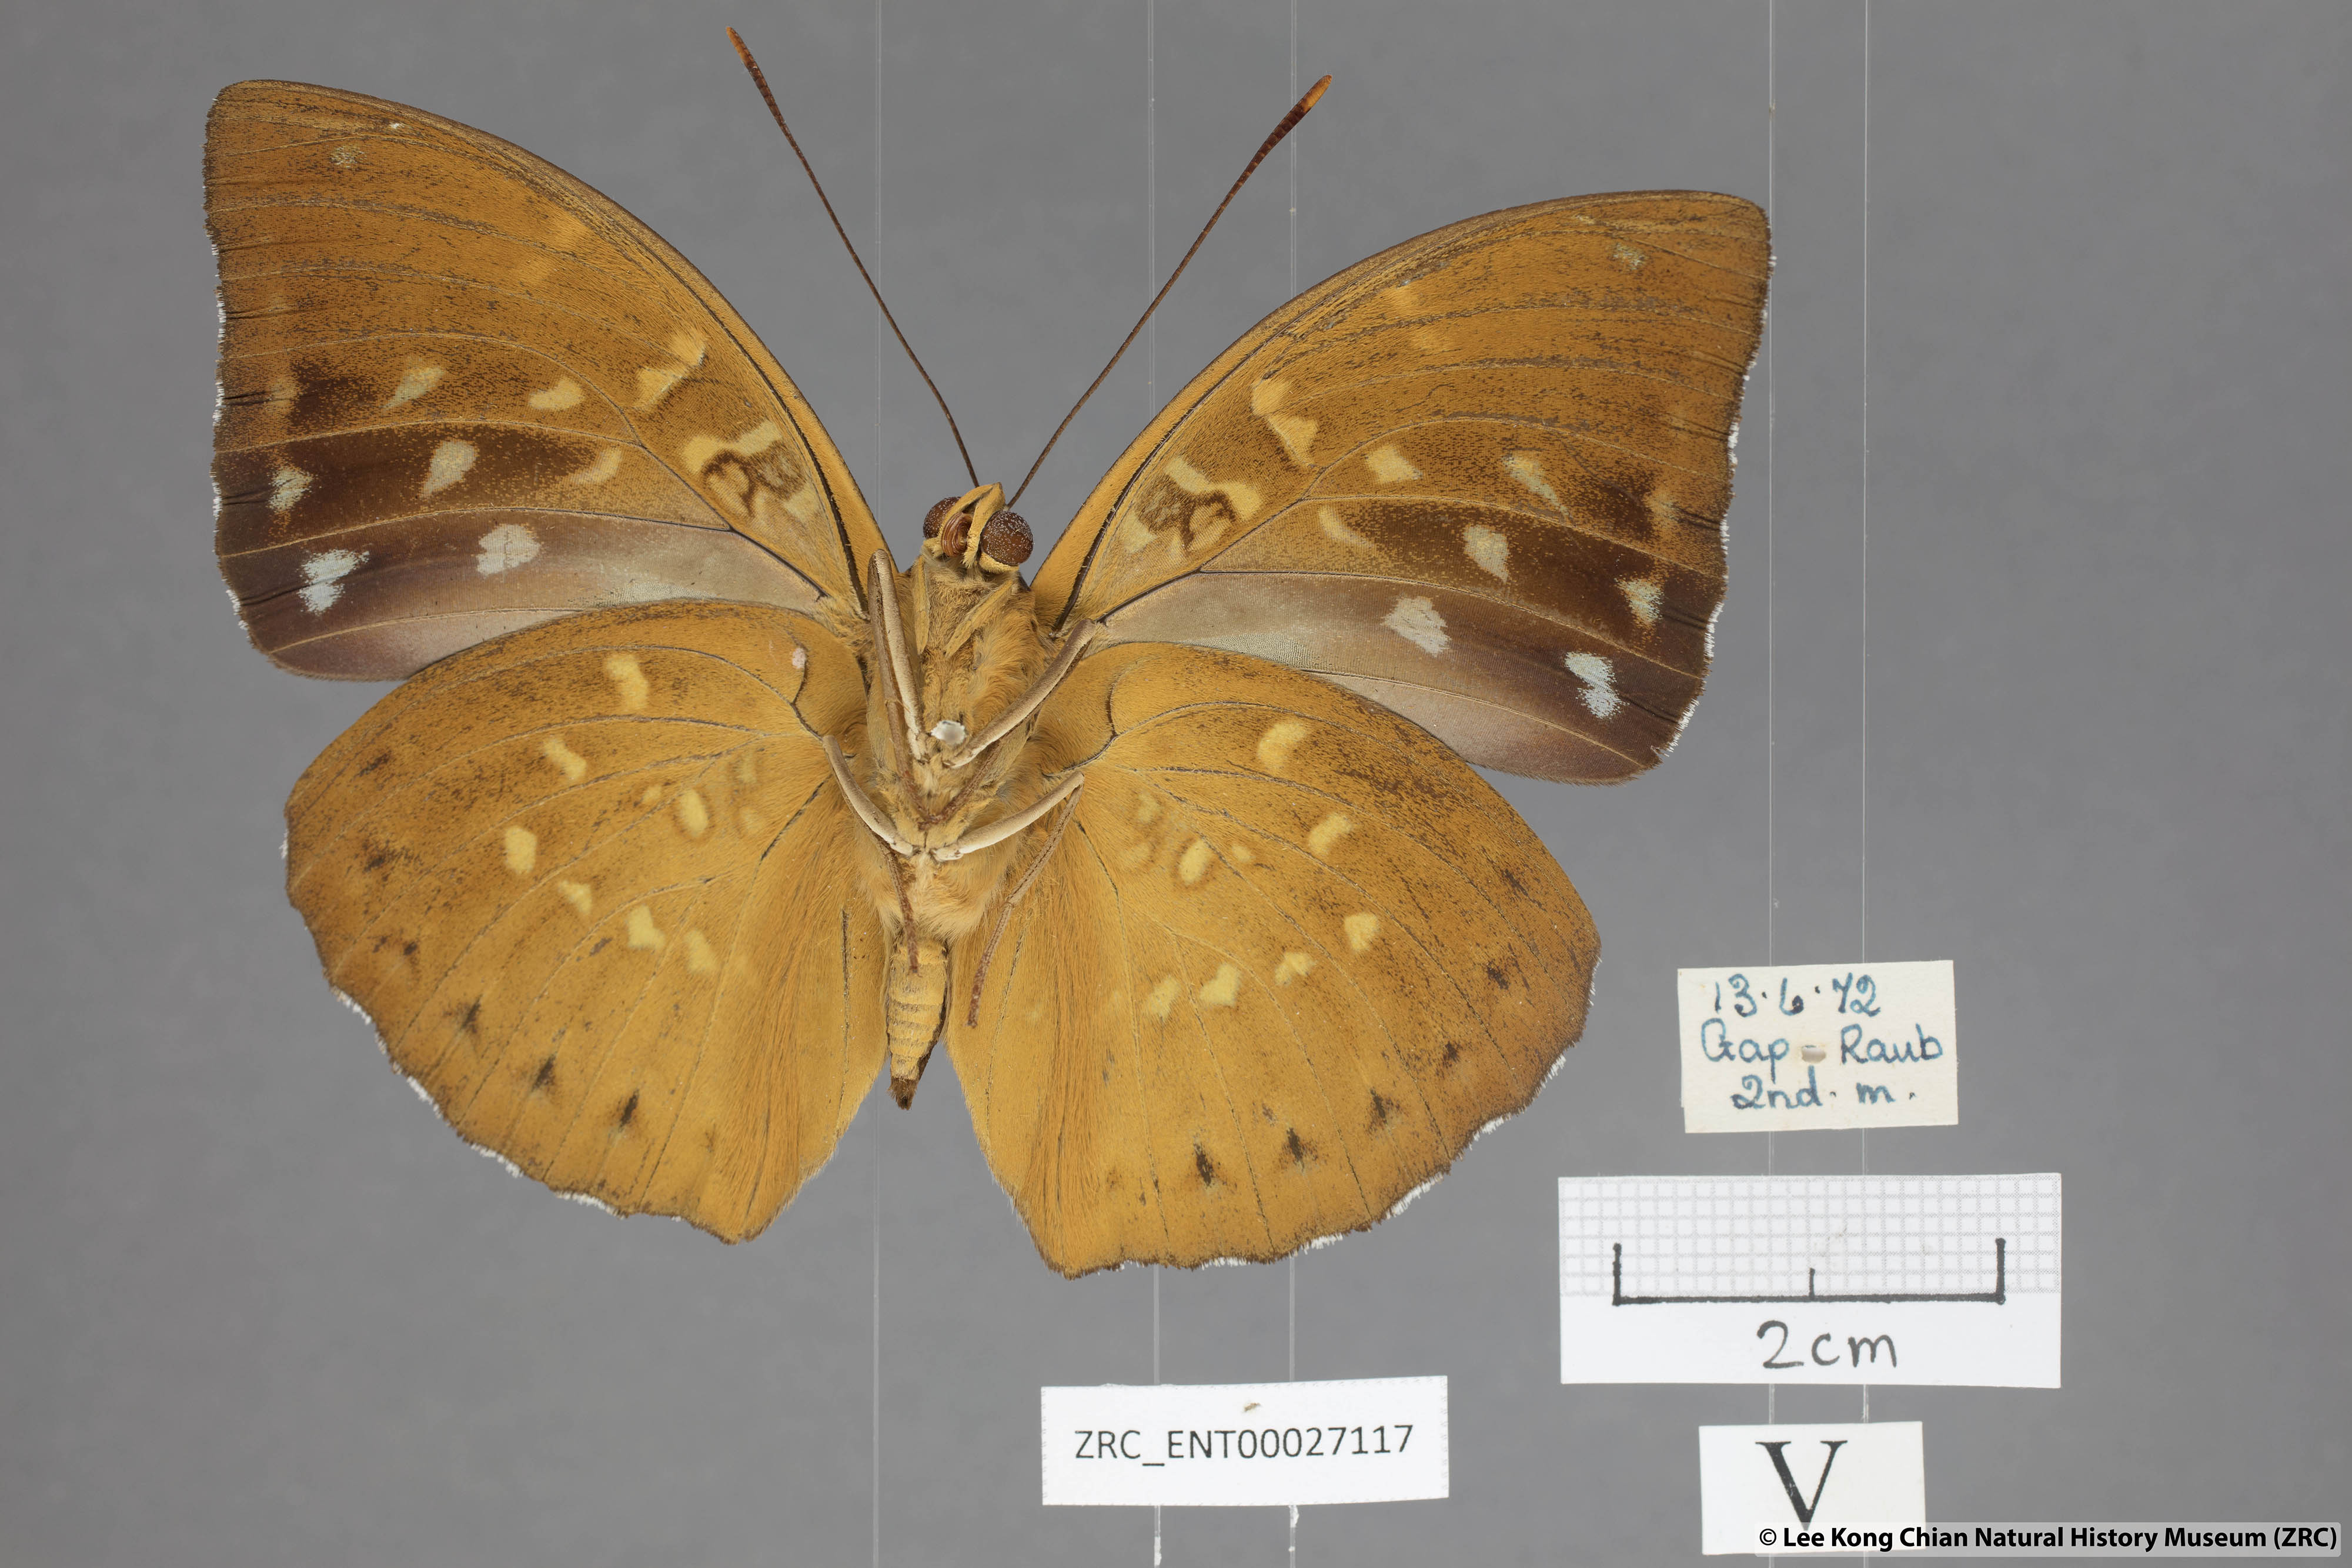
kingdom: Animalia
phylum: Arthropoda
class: Insecta
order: Lepidoptera
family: Nymphalidae
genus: Lexias
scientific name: Lexias pardalis
